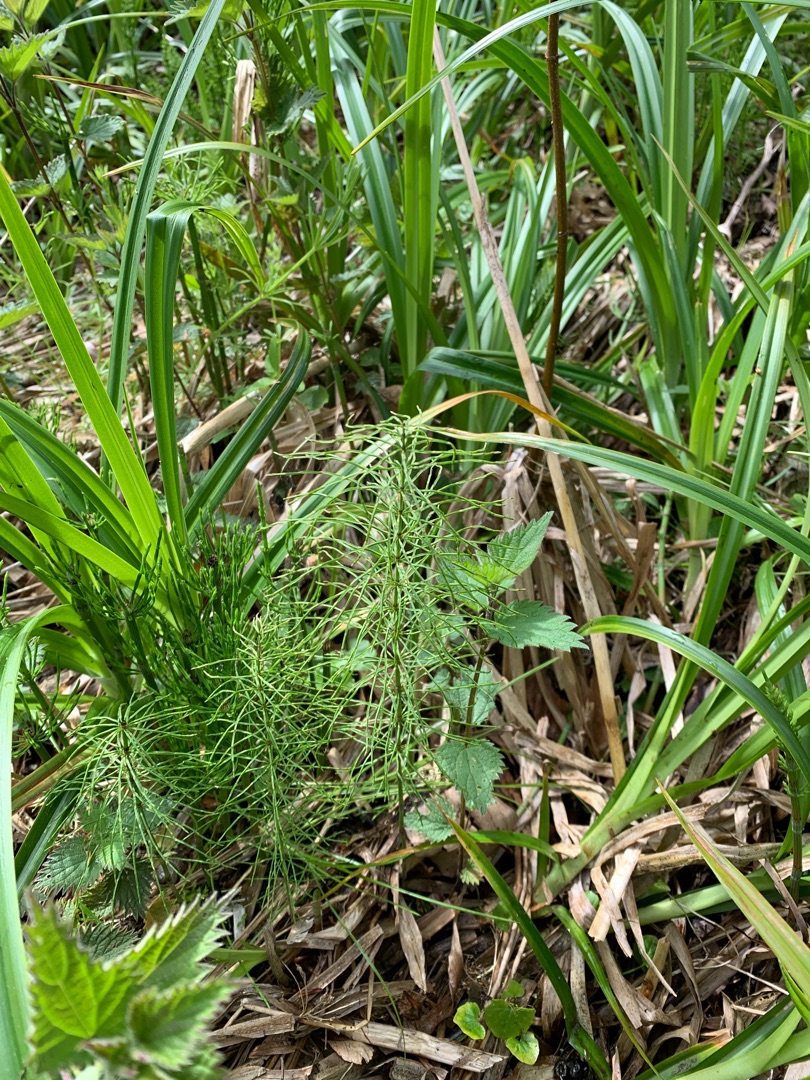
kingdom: Plantae
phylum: Tracheophyta
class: Polypodiopsida
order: Equisetales
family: Equisetaceae
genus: Equisetum
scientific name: Equisetum pratense
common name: Lund-padderok
